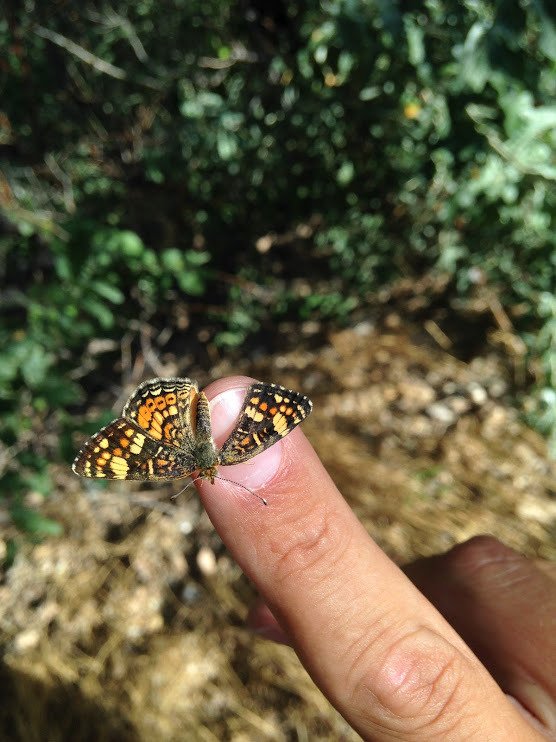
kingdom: Animalia
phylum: Arthropoda
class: Insecta
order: Lepidoptera
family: Nymphalidae
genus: Phyciodes
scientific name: Phyciodes tharos
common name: Field Crescent
